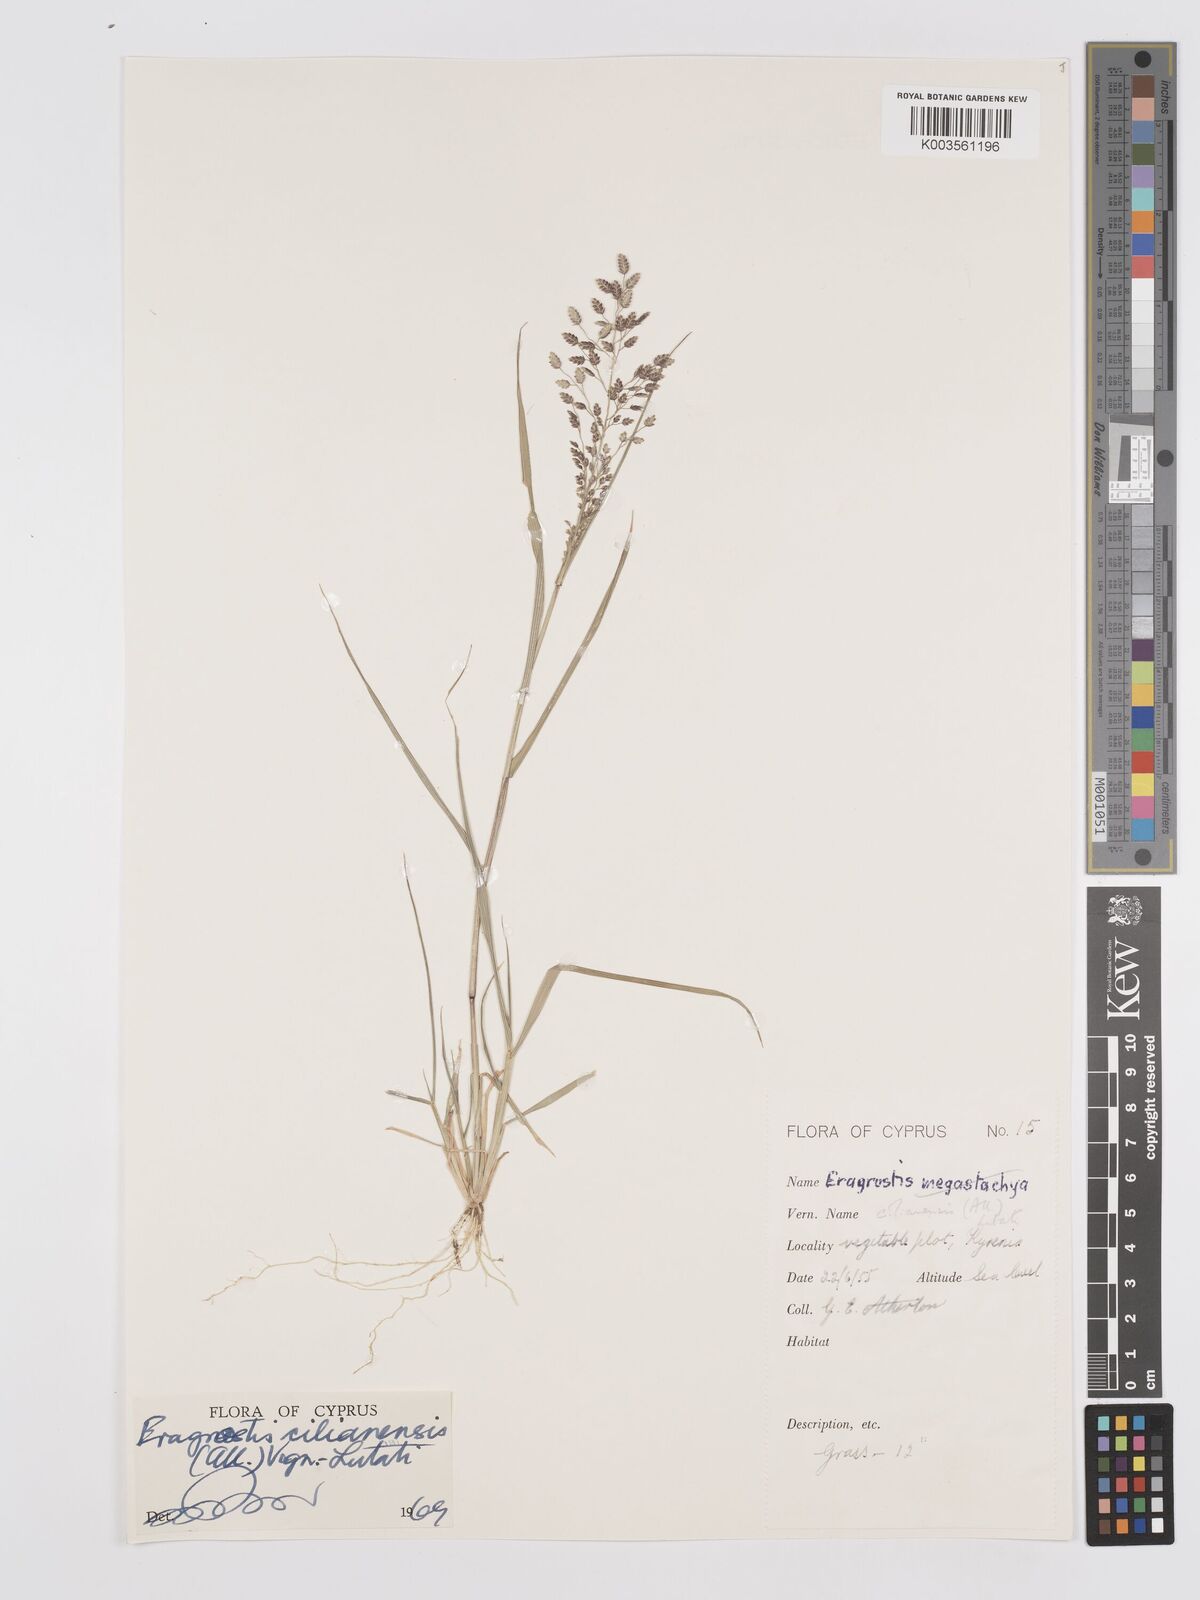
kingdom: Plantae
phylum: Tracheophyta
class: Liliopsida
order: Poales
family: Poaceae
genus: Eragrostis
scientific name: Eragrostis cilianensis
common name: Stinkgrass
